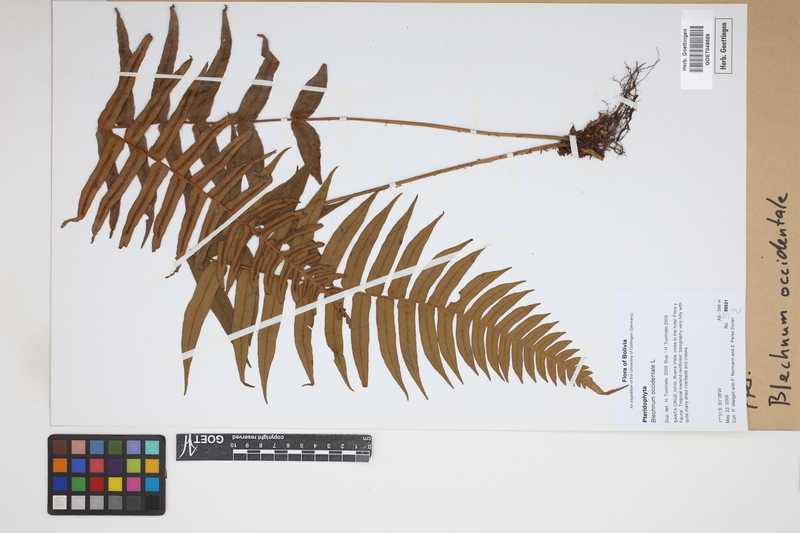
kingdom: Plantae
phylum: Tracheophyta
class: Polypodiopsida
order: Polypodiales
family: Blechnaceae
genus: Blechnum
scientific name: Blechnum occidentale
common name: Hammock fern
